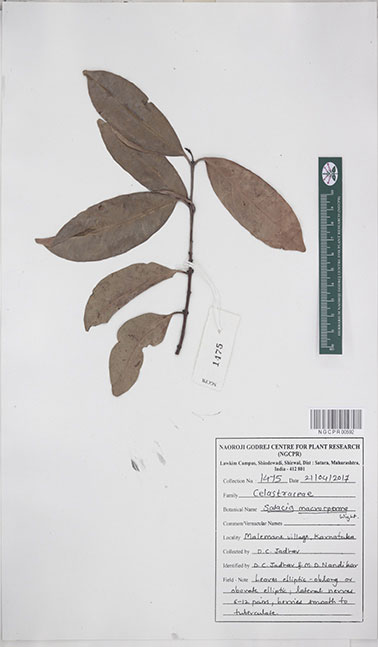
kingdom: Plantae
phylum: Tracheophyta
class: Magnoliopsida
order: Celastrales
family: Celastraceae
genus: Salacia
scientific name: Salacia macrosperma
